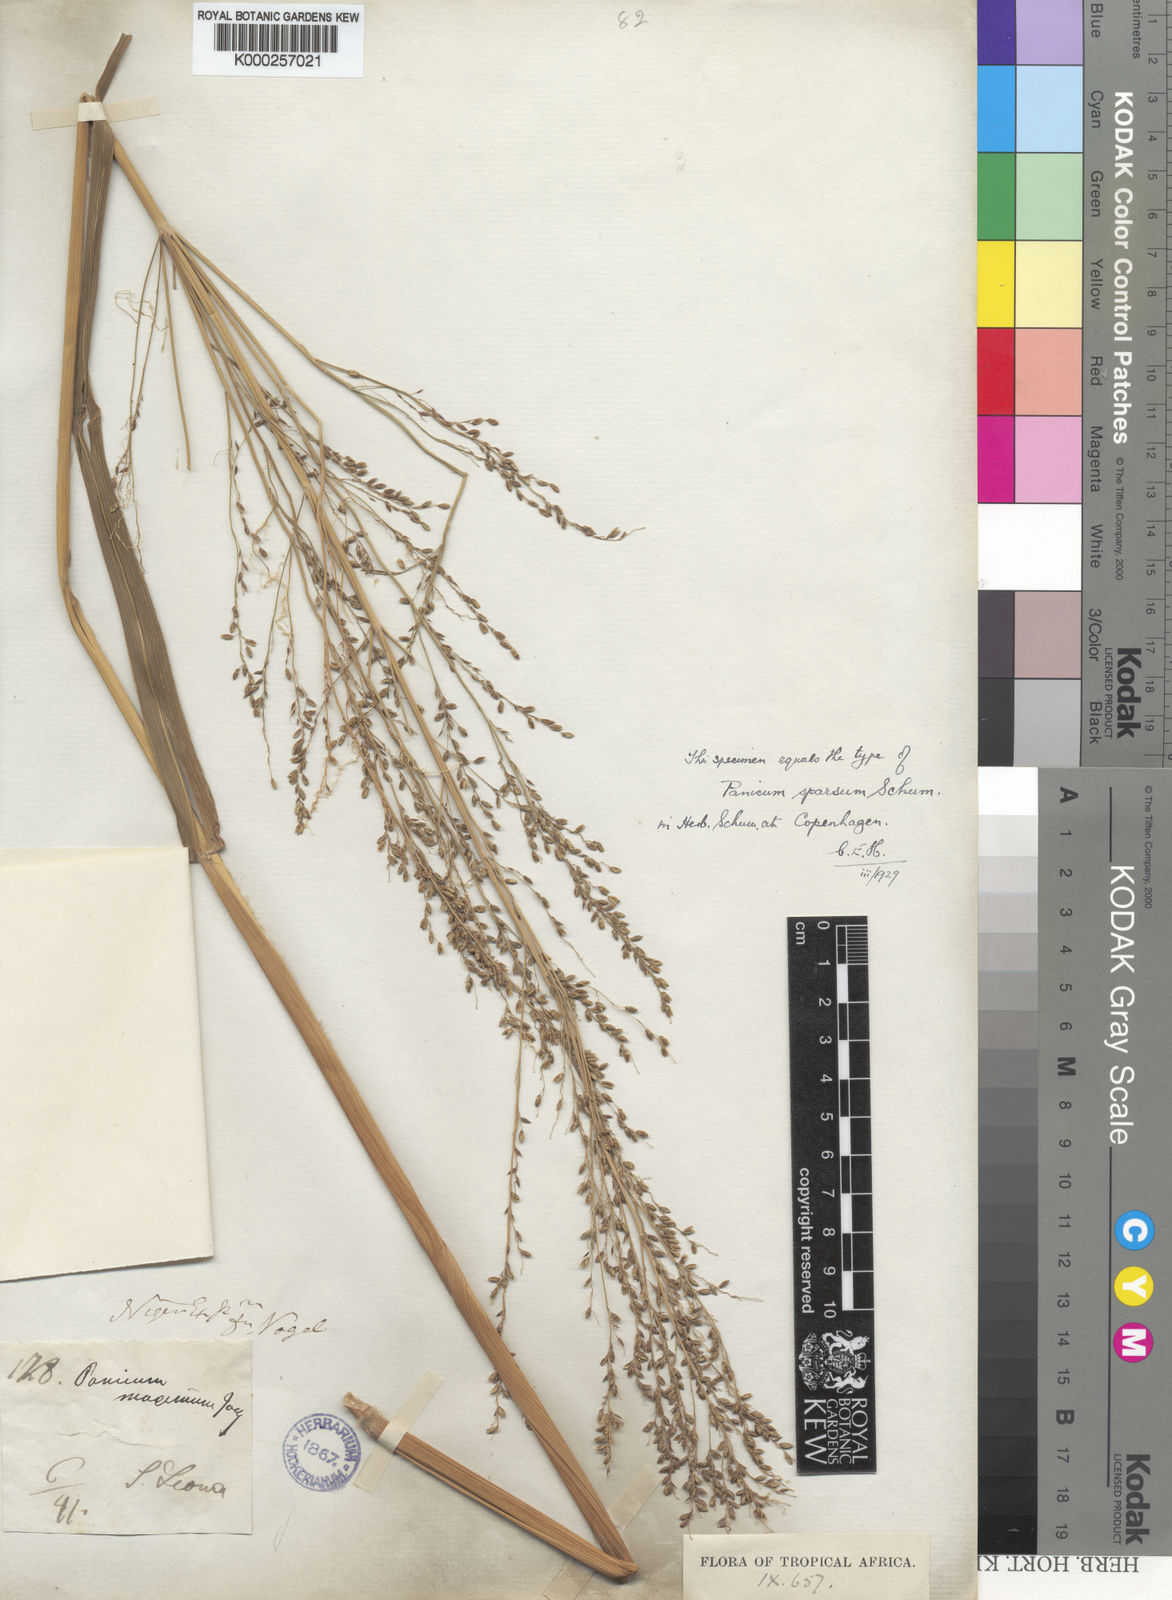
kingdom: Plantae
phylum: Tracheophyta
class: Liliopsida
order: Poales
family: Poaceae
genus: Megathyrsus
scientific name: Megathyrsus maximus
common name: Guineagrass
